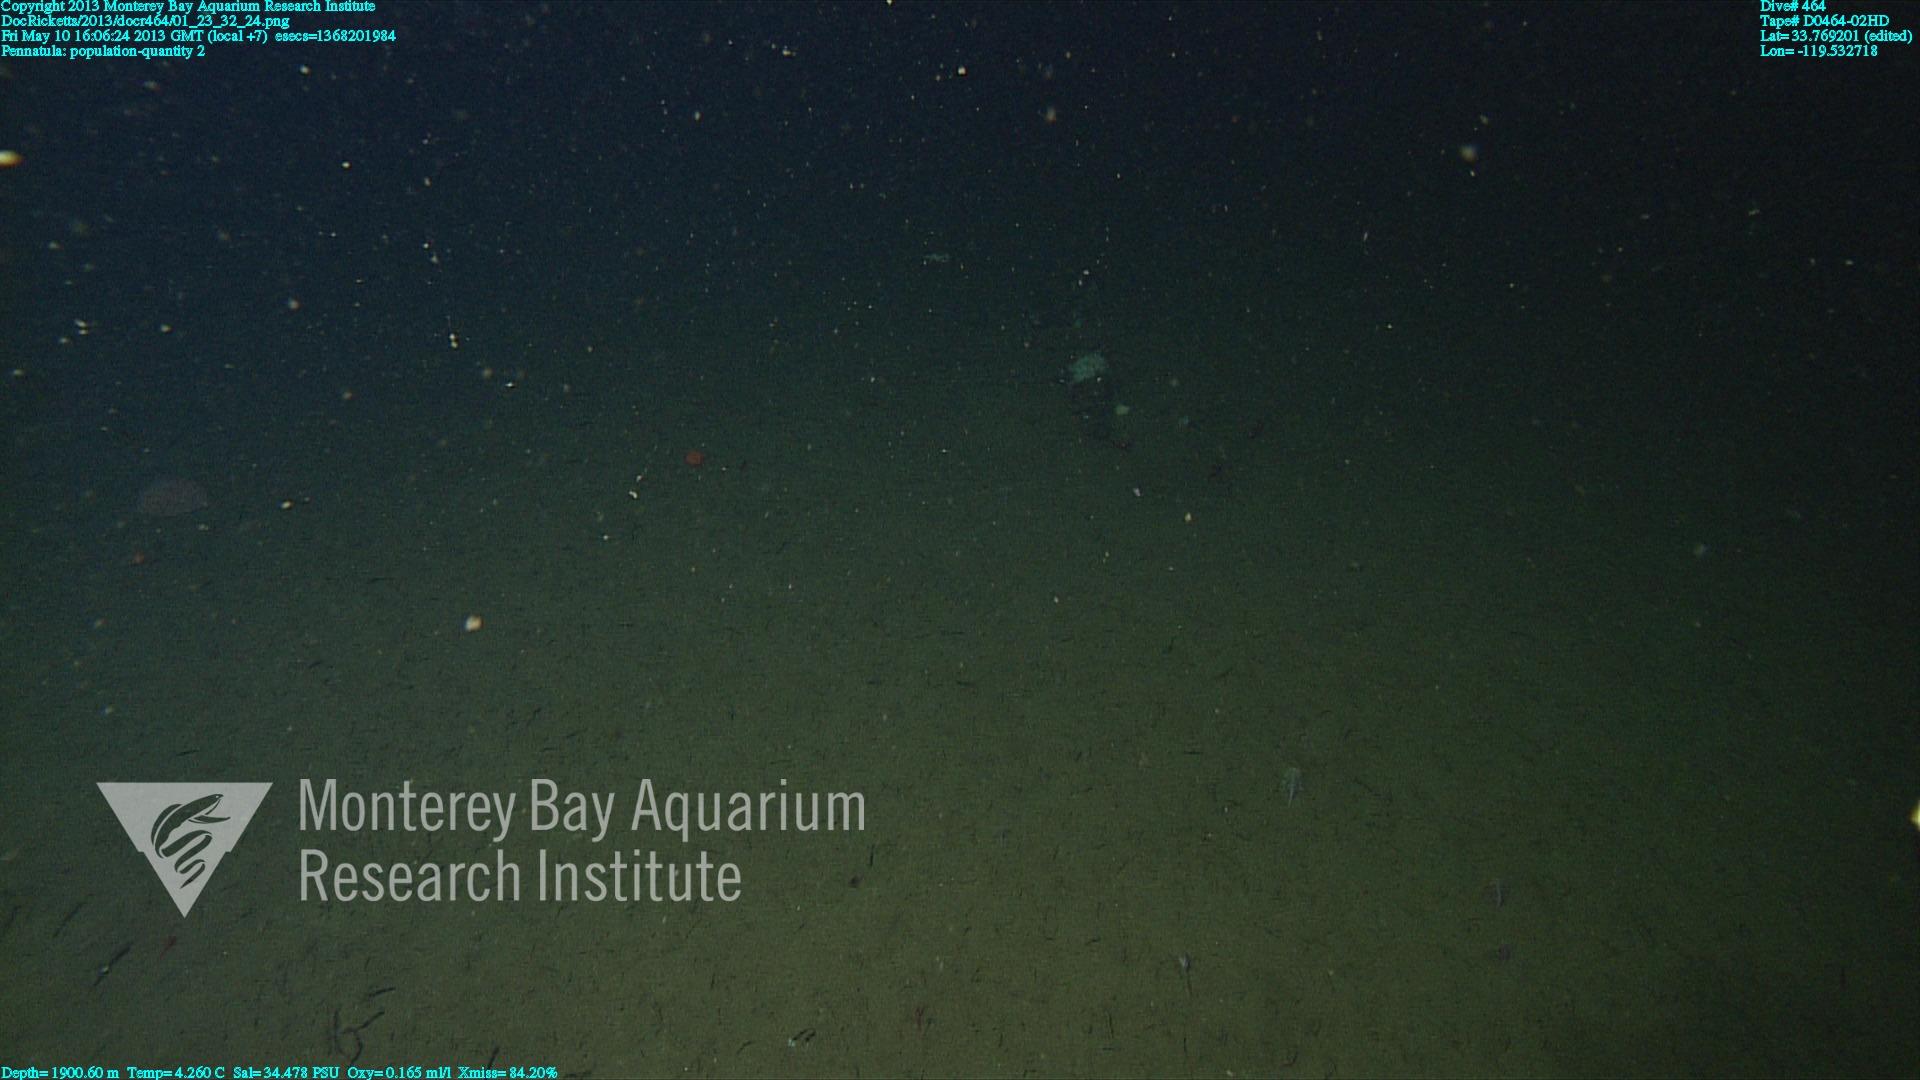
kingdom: Animalia
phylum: Cnidaria
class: Anthozoa
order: Scleralcyonacea
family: Pennatulidae
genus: Pennatula
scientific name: Pennatula
